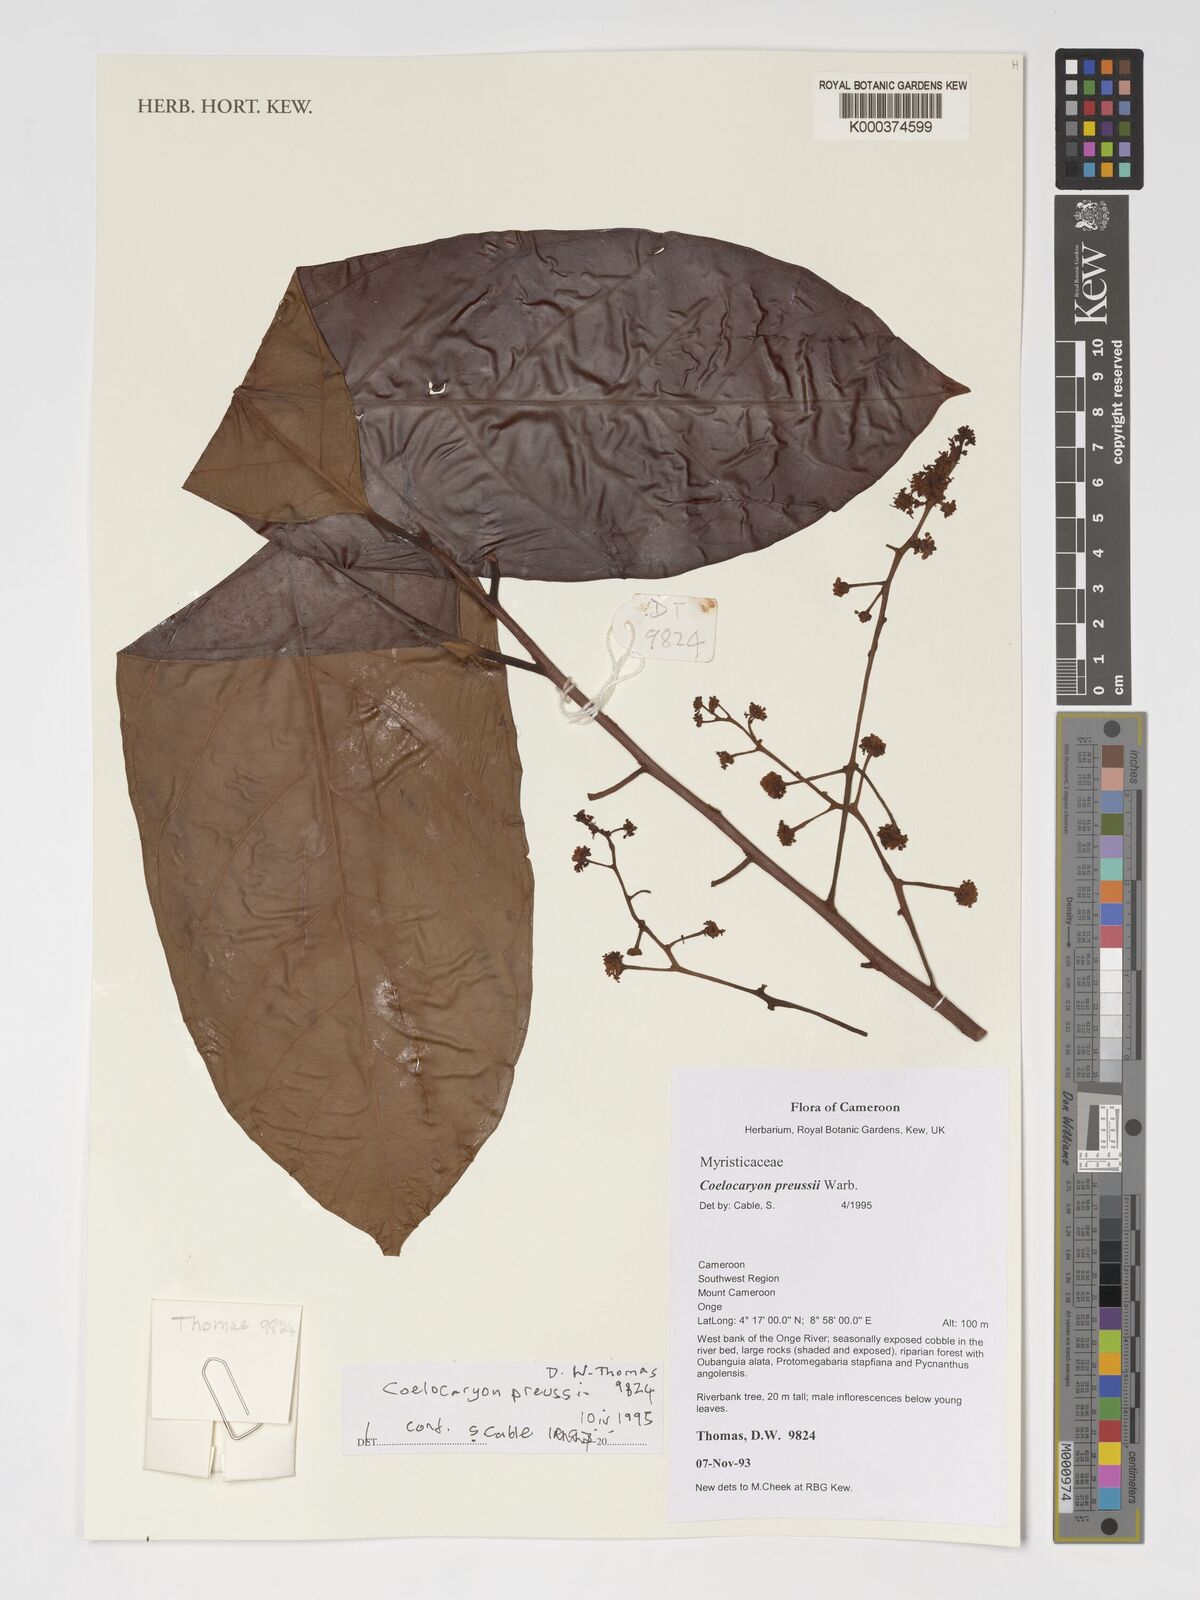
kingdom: Plantae
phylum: Tracheophyta
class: Magnoliopsida
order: Magnoliales
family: Myristicaceae
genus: Coelocaryon
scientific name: Coelocaryon preussii
